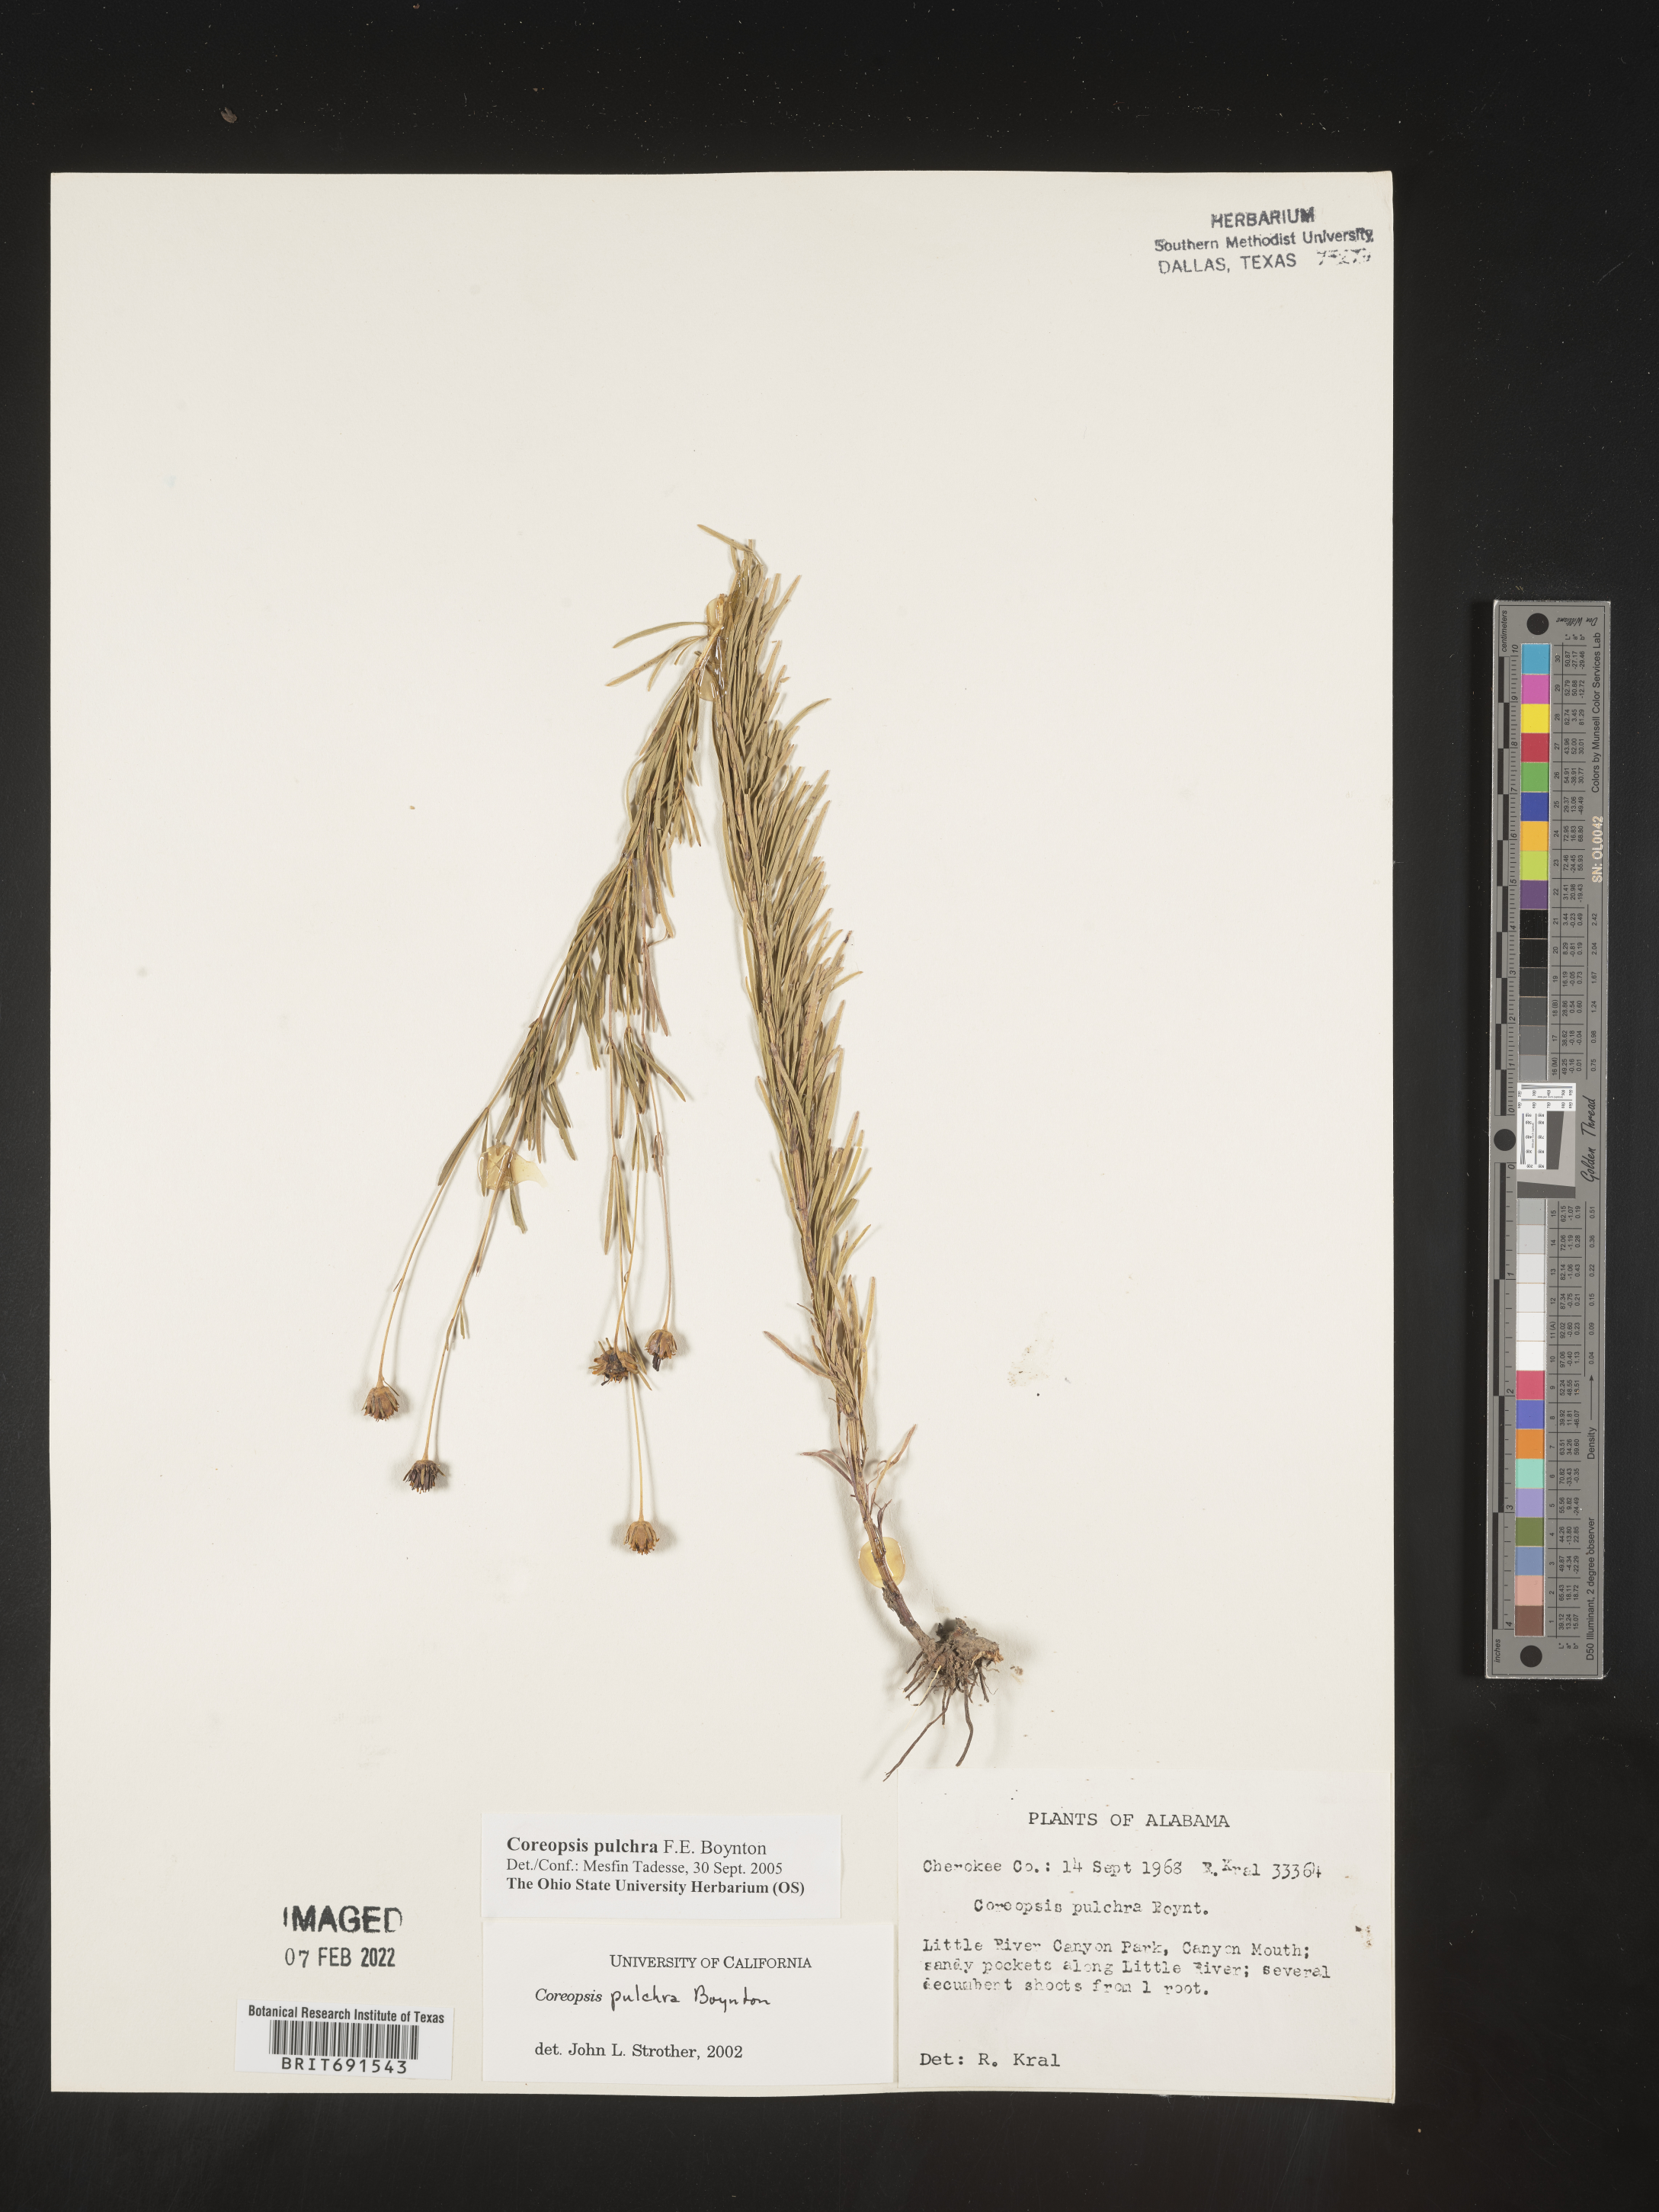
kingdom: Plantae
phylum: Tracheophyta
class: Magnoliopsida
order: Asterales
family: Asteraceae
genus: Coreopsis
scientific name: Coreopsis pulchra
